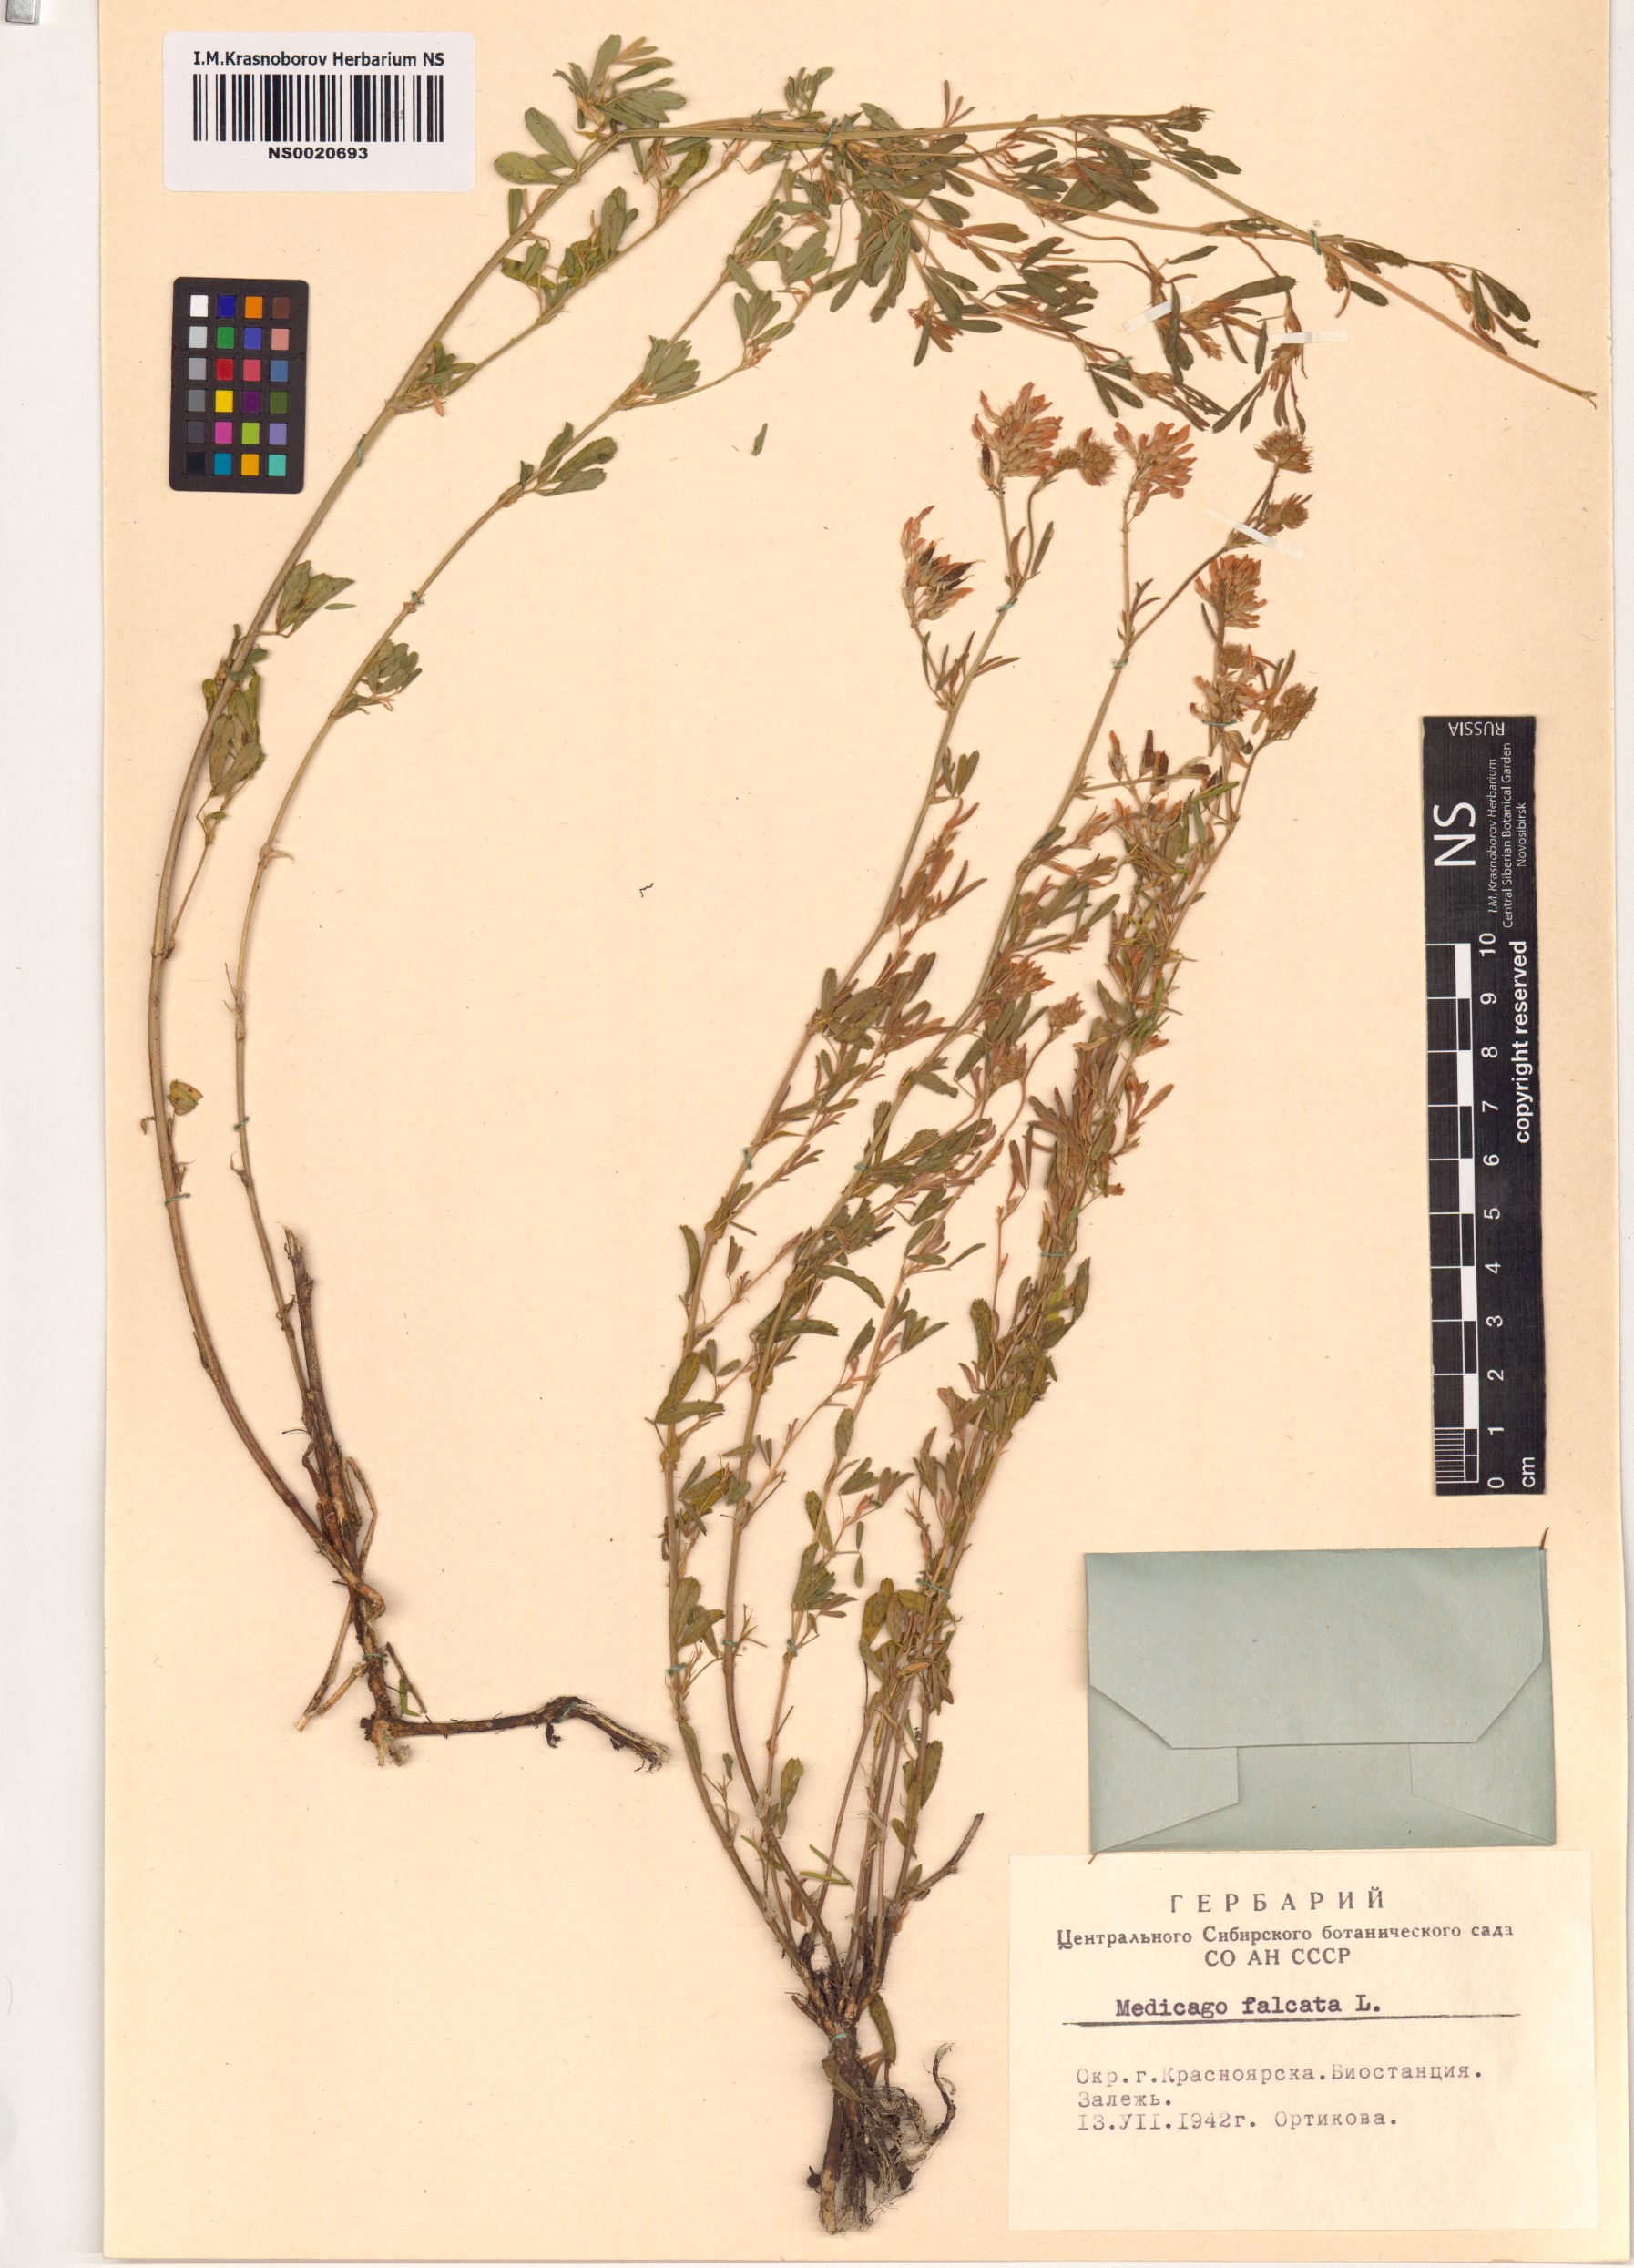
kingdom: Plantae
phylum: Tracheophyta
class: Magnoliopsida
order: Fabales
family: Fabaceae
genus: Medicago
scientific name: Medicago falcata
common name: Sickle medick
